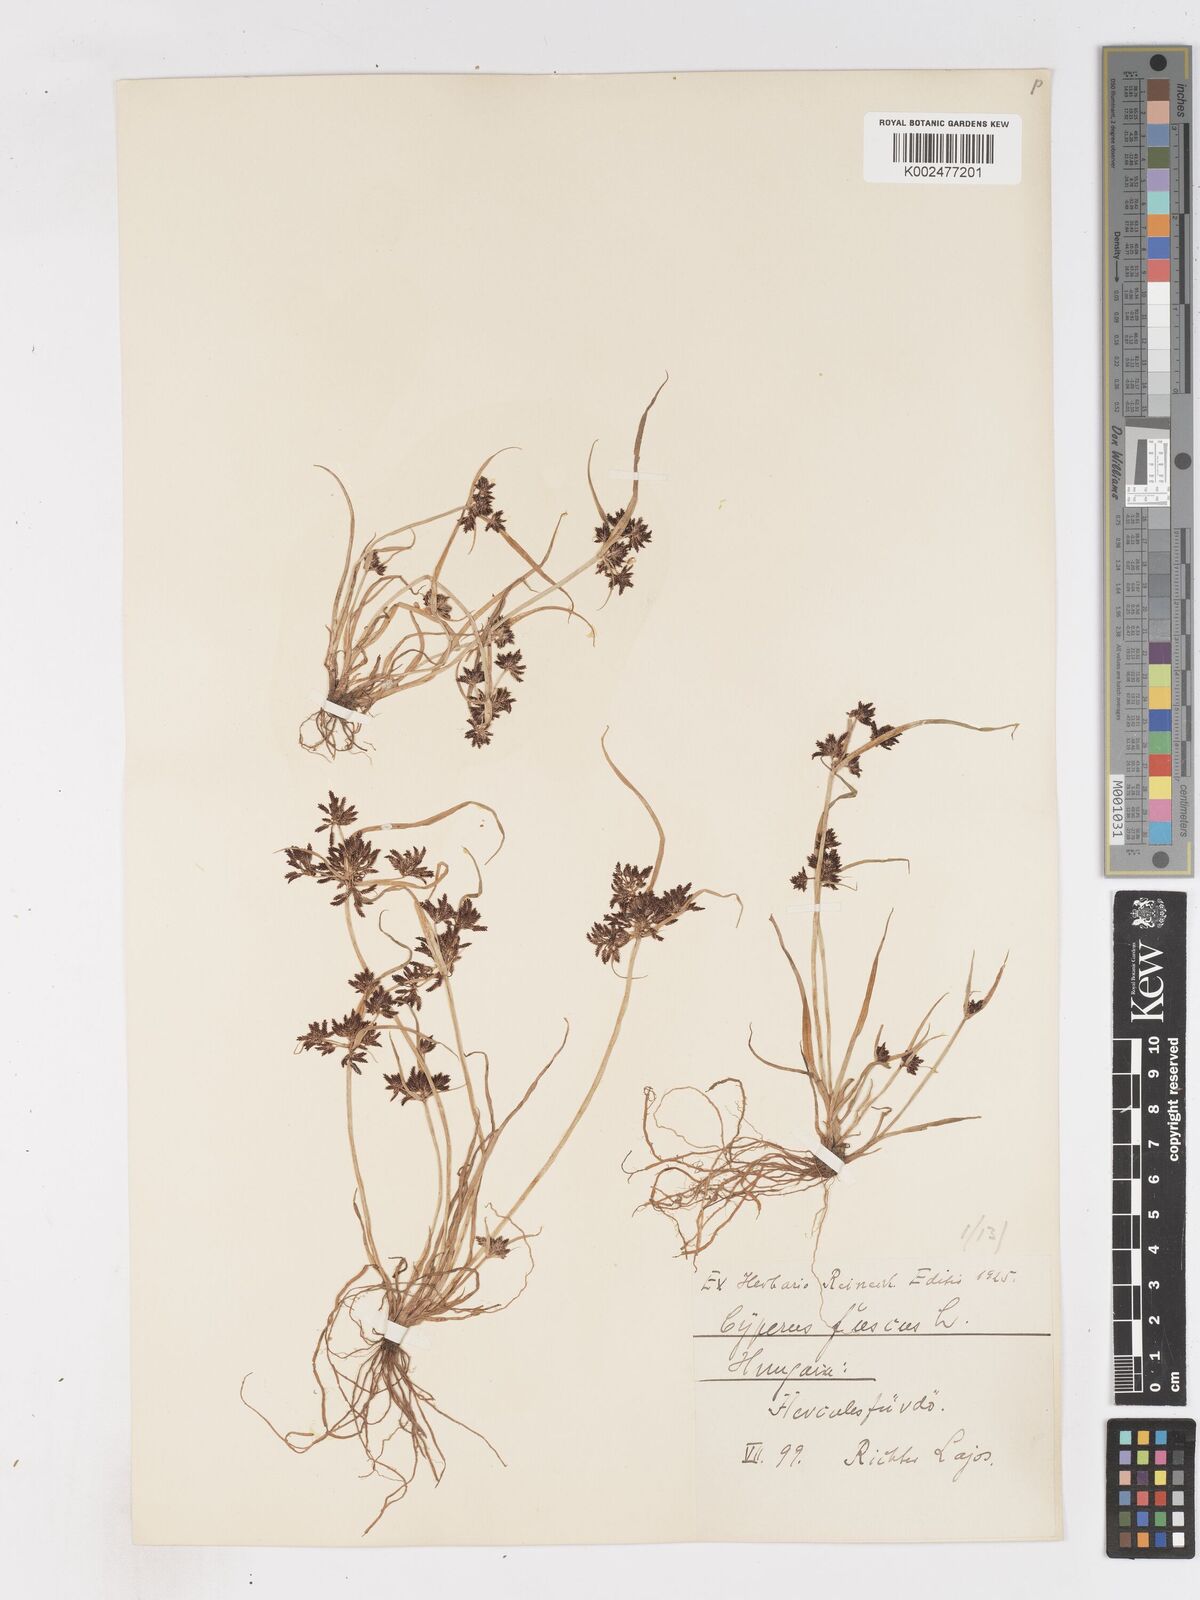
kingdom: Plantae
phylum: Tracheophyta
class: Liliopsida
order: Poales
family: Cyperaceae
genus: Cyperus
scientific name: Cyperus fuscus
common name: Brown galingale
